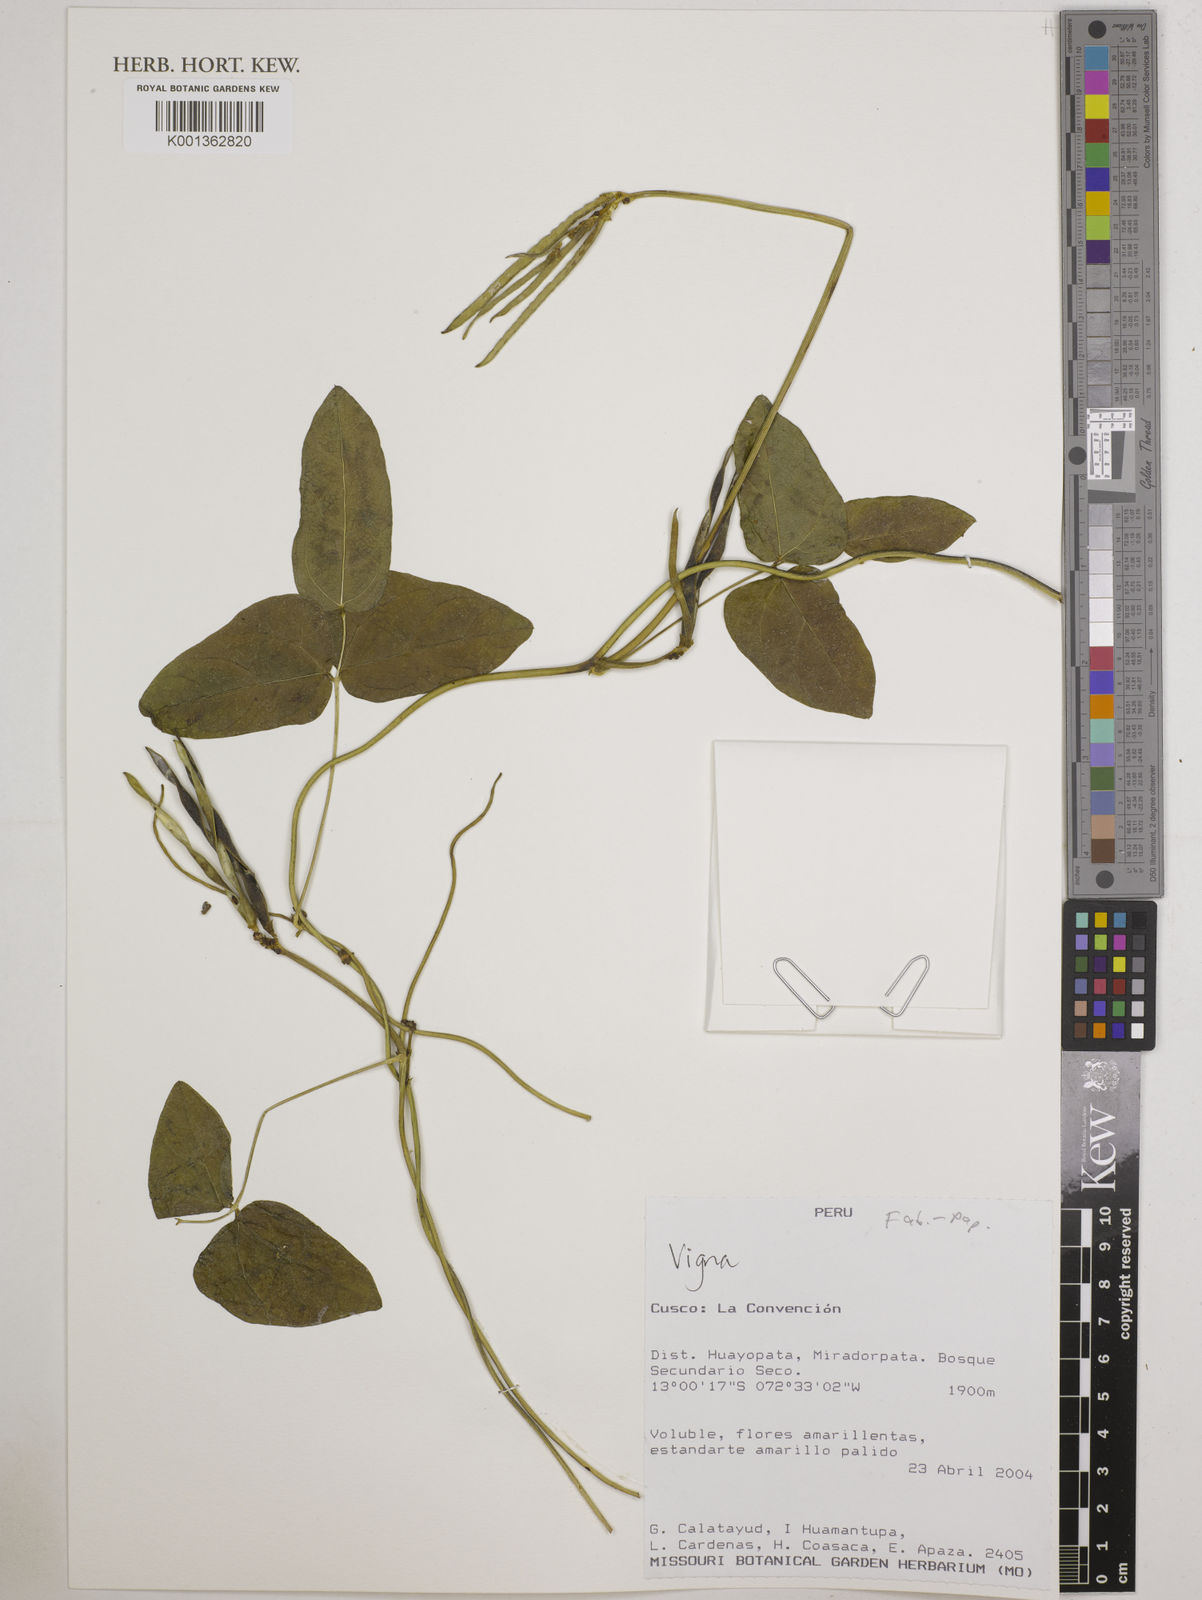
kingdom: Plantae
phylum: Tracheophyta
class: Magnoliopsida
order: Fabales
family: Fabaceae
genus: Vigna
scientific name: Vigna
